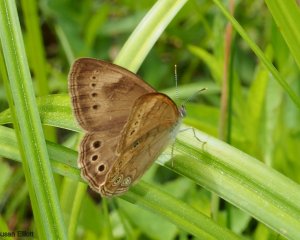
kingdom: Animalia
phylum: Arthropoda
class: Insecta
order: Lepidoptera
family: Nymphalidae
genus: Lethe
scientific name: Lethe eurydice
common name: Eyed Brown
